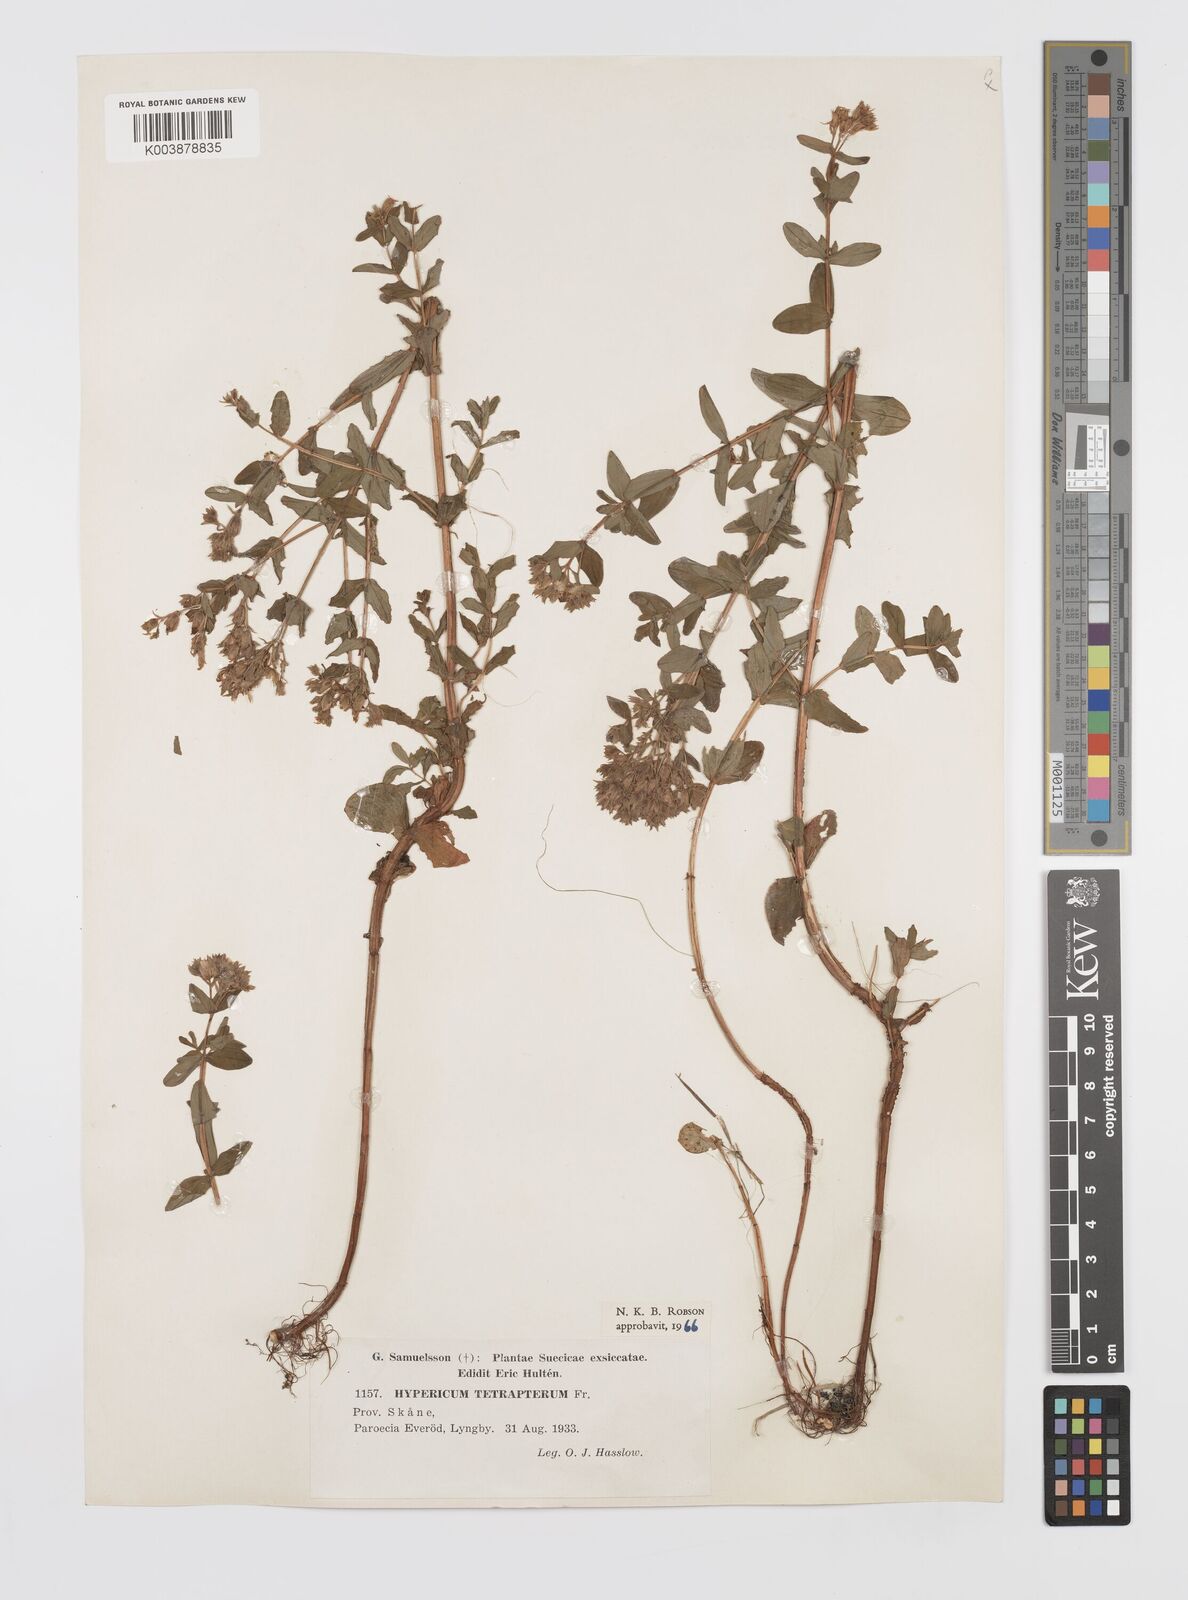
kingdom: Plantae
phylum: Tracheophyta
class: Magnoliopsida
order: Malpighiales
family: Hypericaceae
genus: Hypericum
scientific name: Hypericum tetrapterum
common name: Square-stalked st. john's-wort
